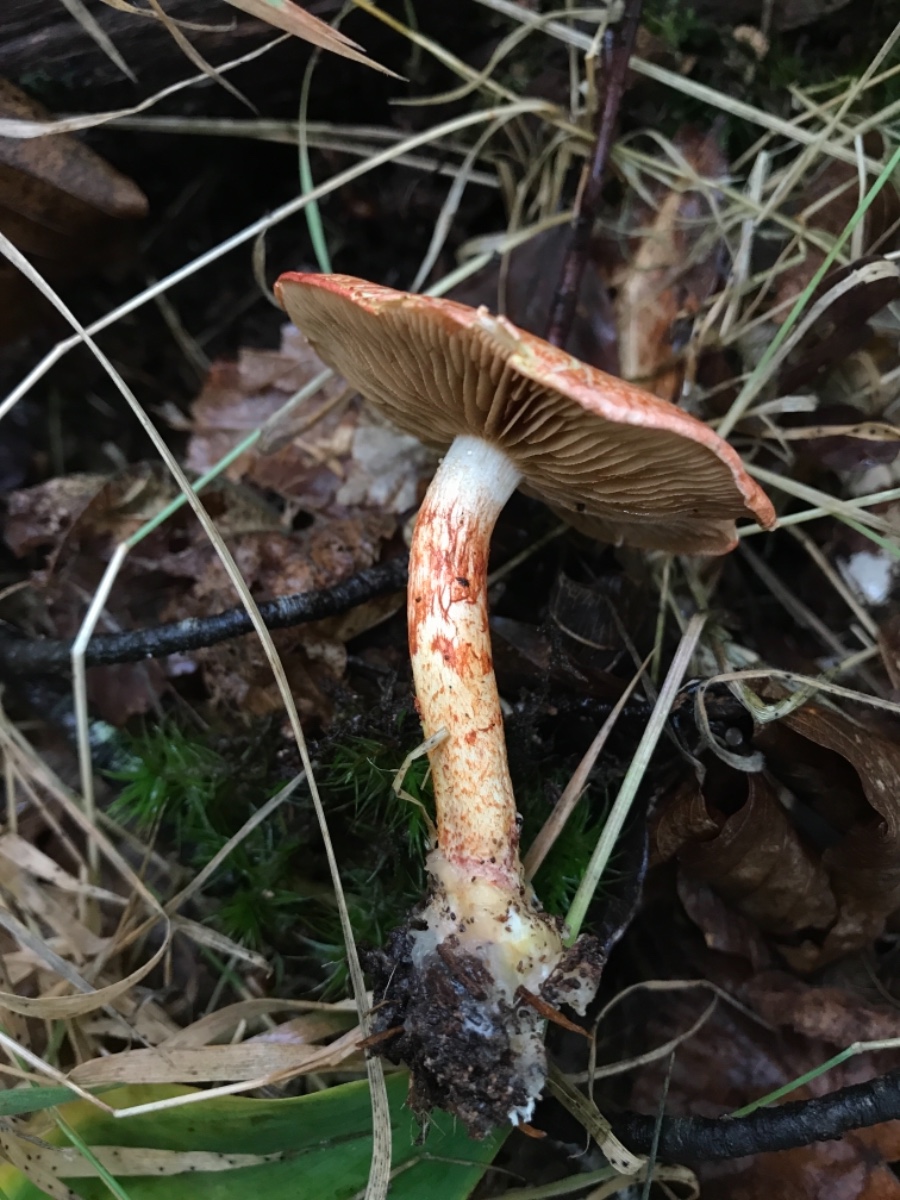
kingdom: Fungi
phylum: Basidiomycota
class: Agaricomycetes
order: Agaricales
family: Cortinariaceae
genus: Cortinarius
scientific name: Cortinarius bolaris
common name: cinnoberskællet slørhat
